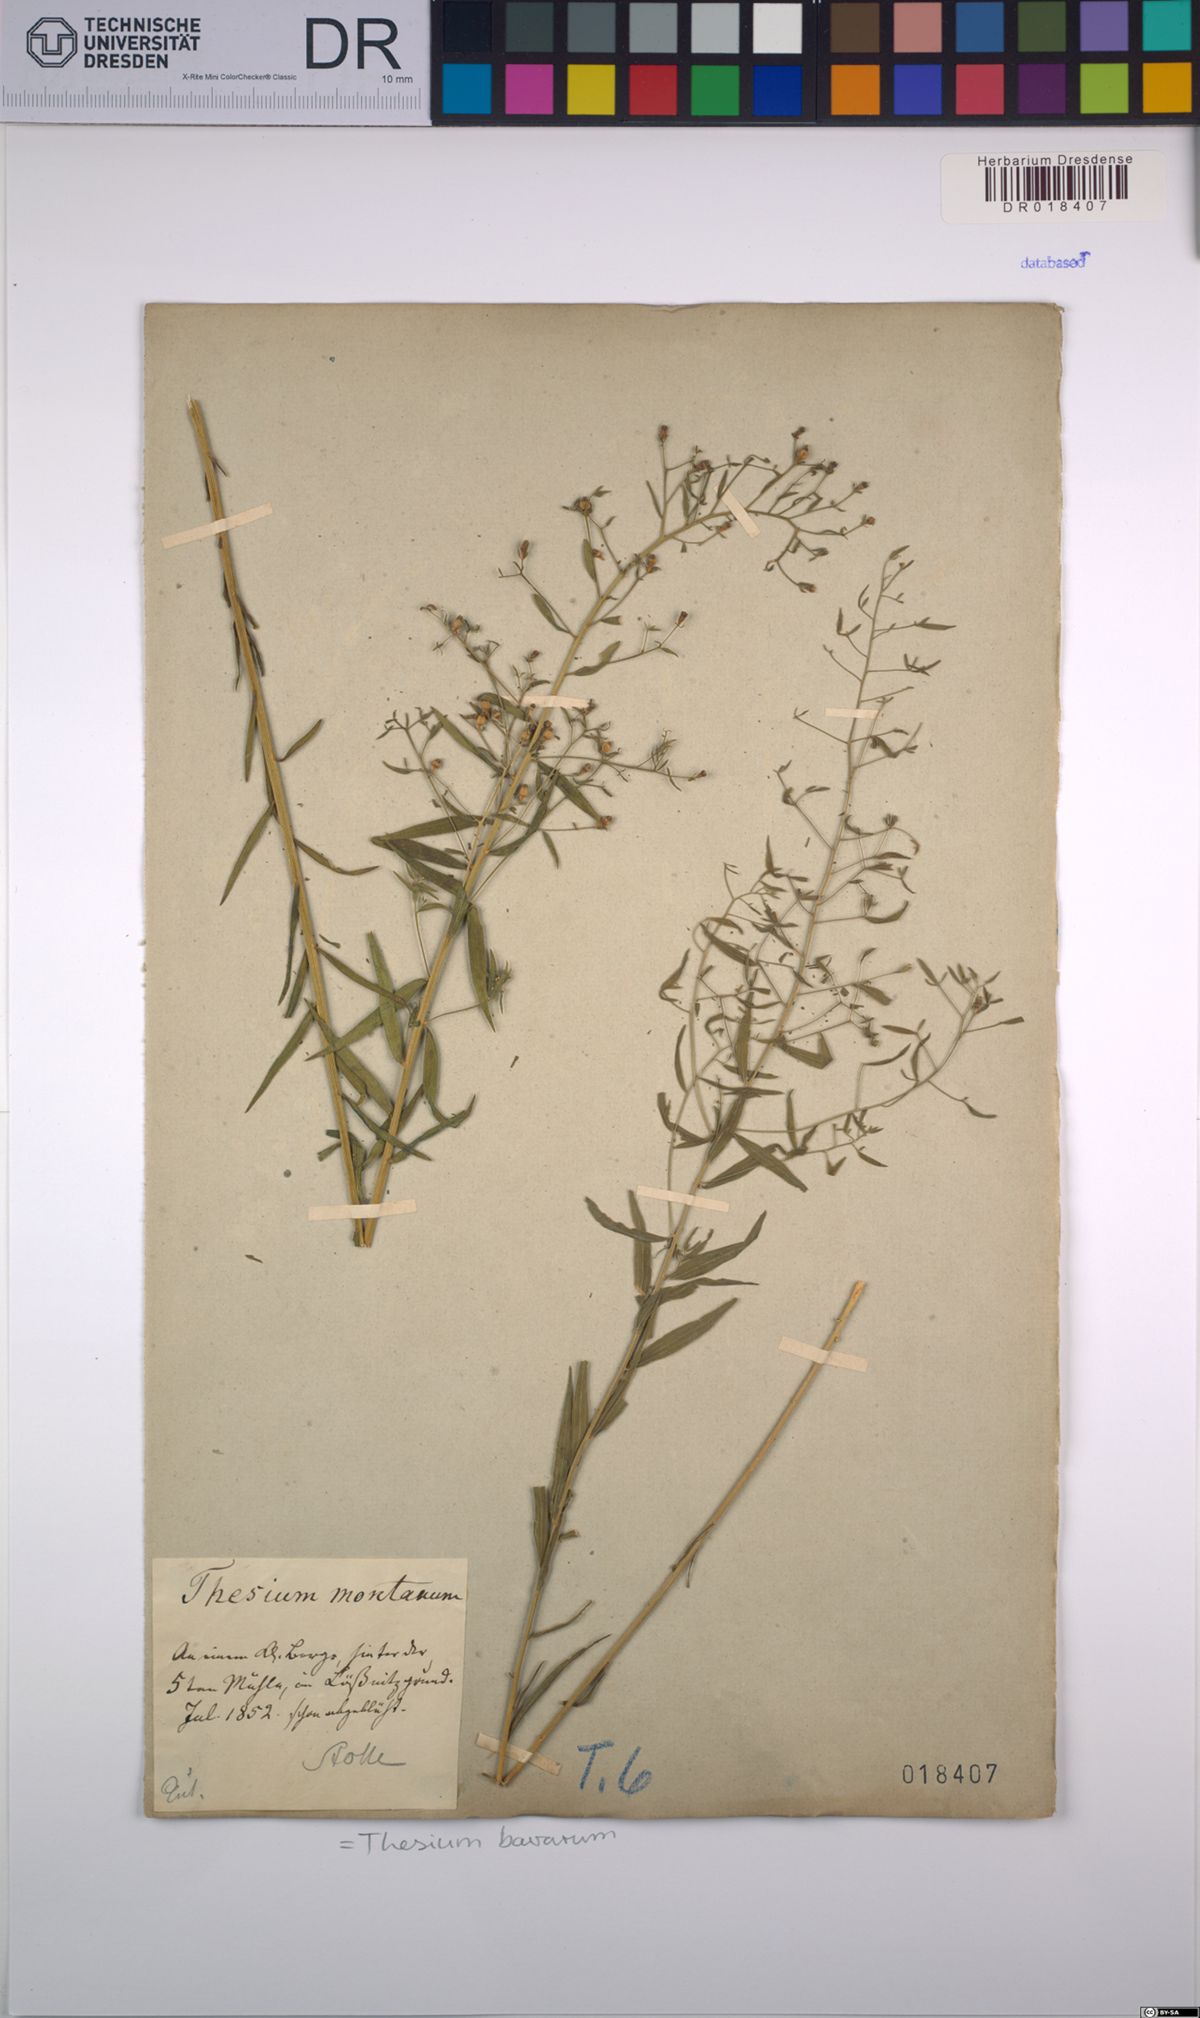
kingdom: Plantae
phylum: Tracheophyta
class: Magnoliopsida
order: Santalales
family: Thesiaceae
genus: Thesium
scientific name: Thesium bavarum
